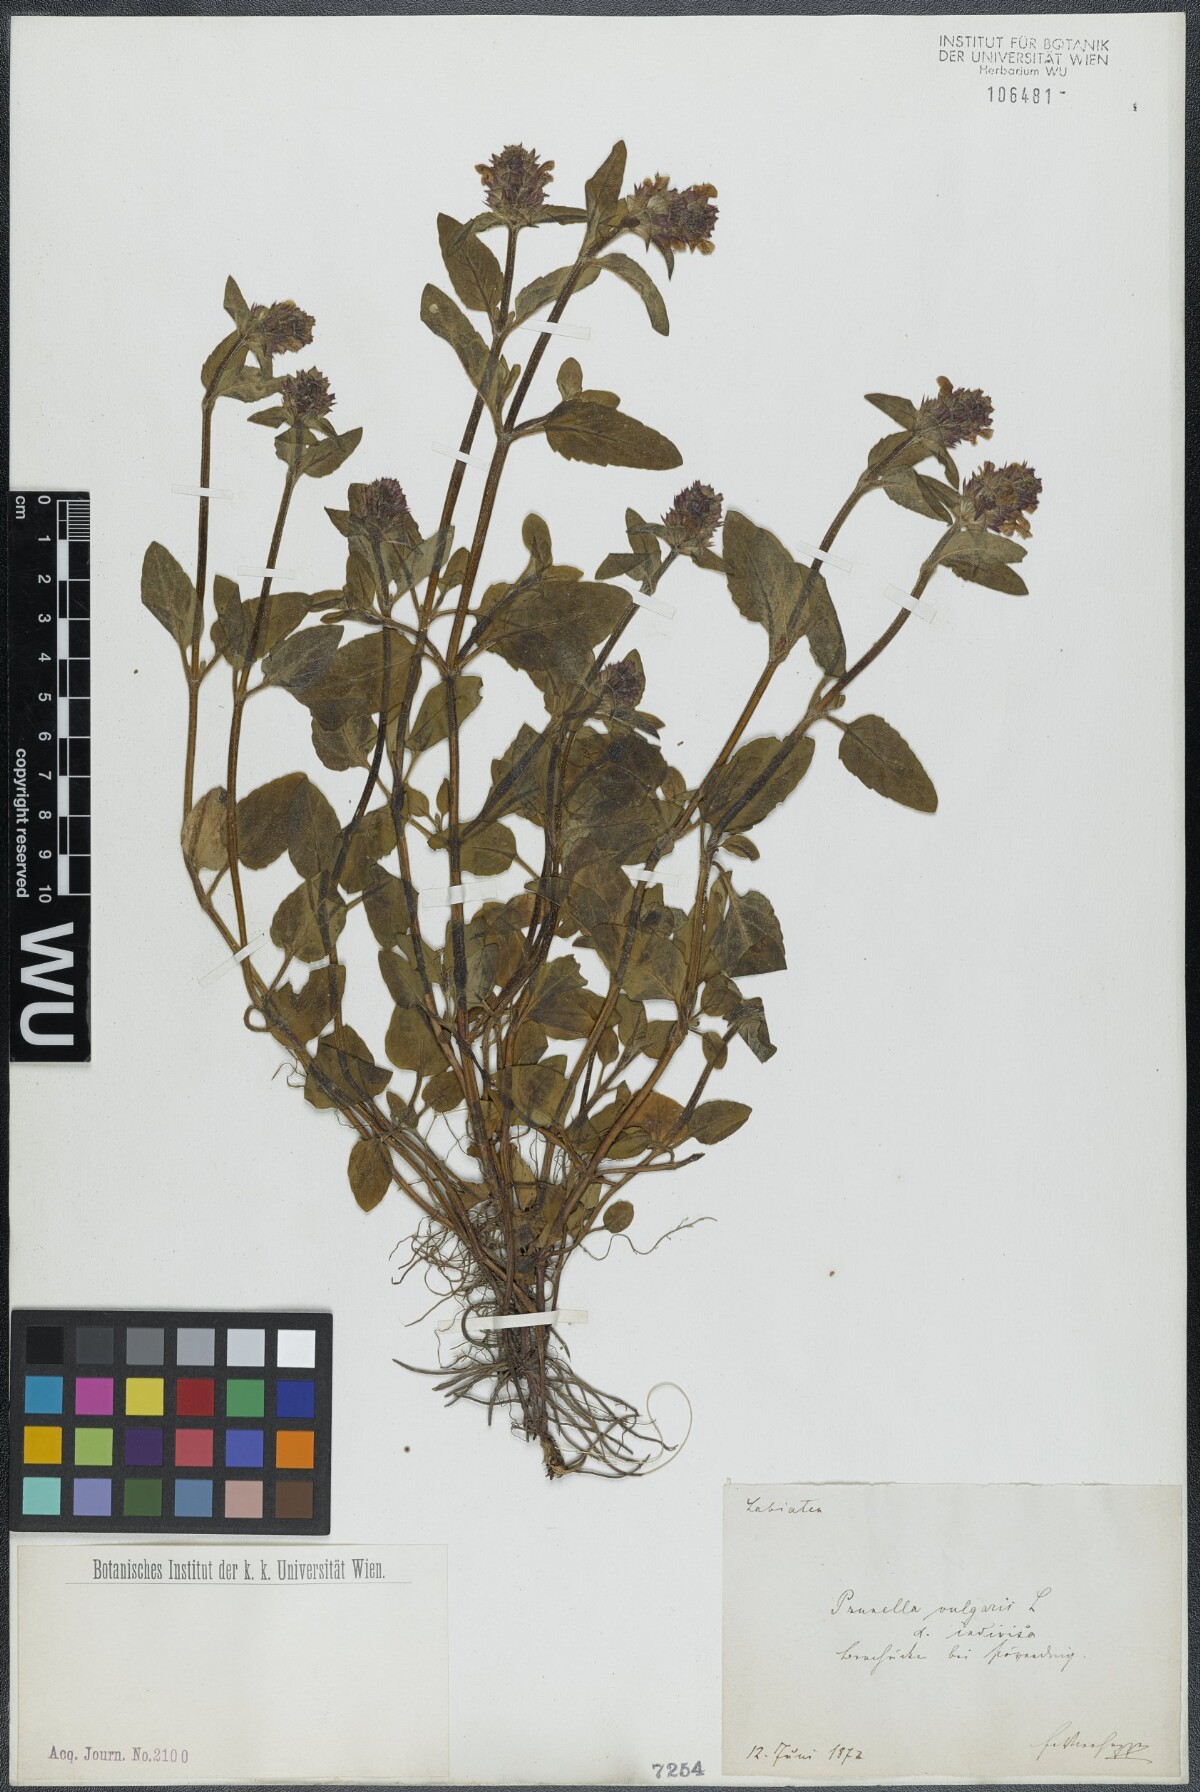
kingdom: Plantae
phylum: Tracheophyta
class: Magnoliopsida
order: Lamiales
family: Lamiaceae
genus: Prunella
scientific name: Prunella vulgaris
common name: Heal-all
